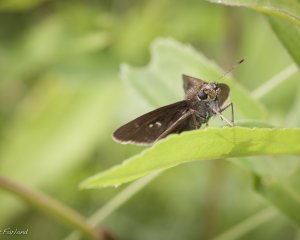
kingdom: Animalia
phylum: Arthropoda
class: Insecta
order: Lepidoptera
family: Hesperiidae
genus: Euphyes
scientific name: Euphyes vestris
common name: Dun Skipper
